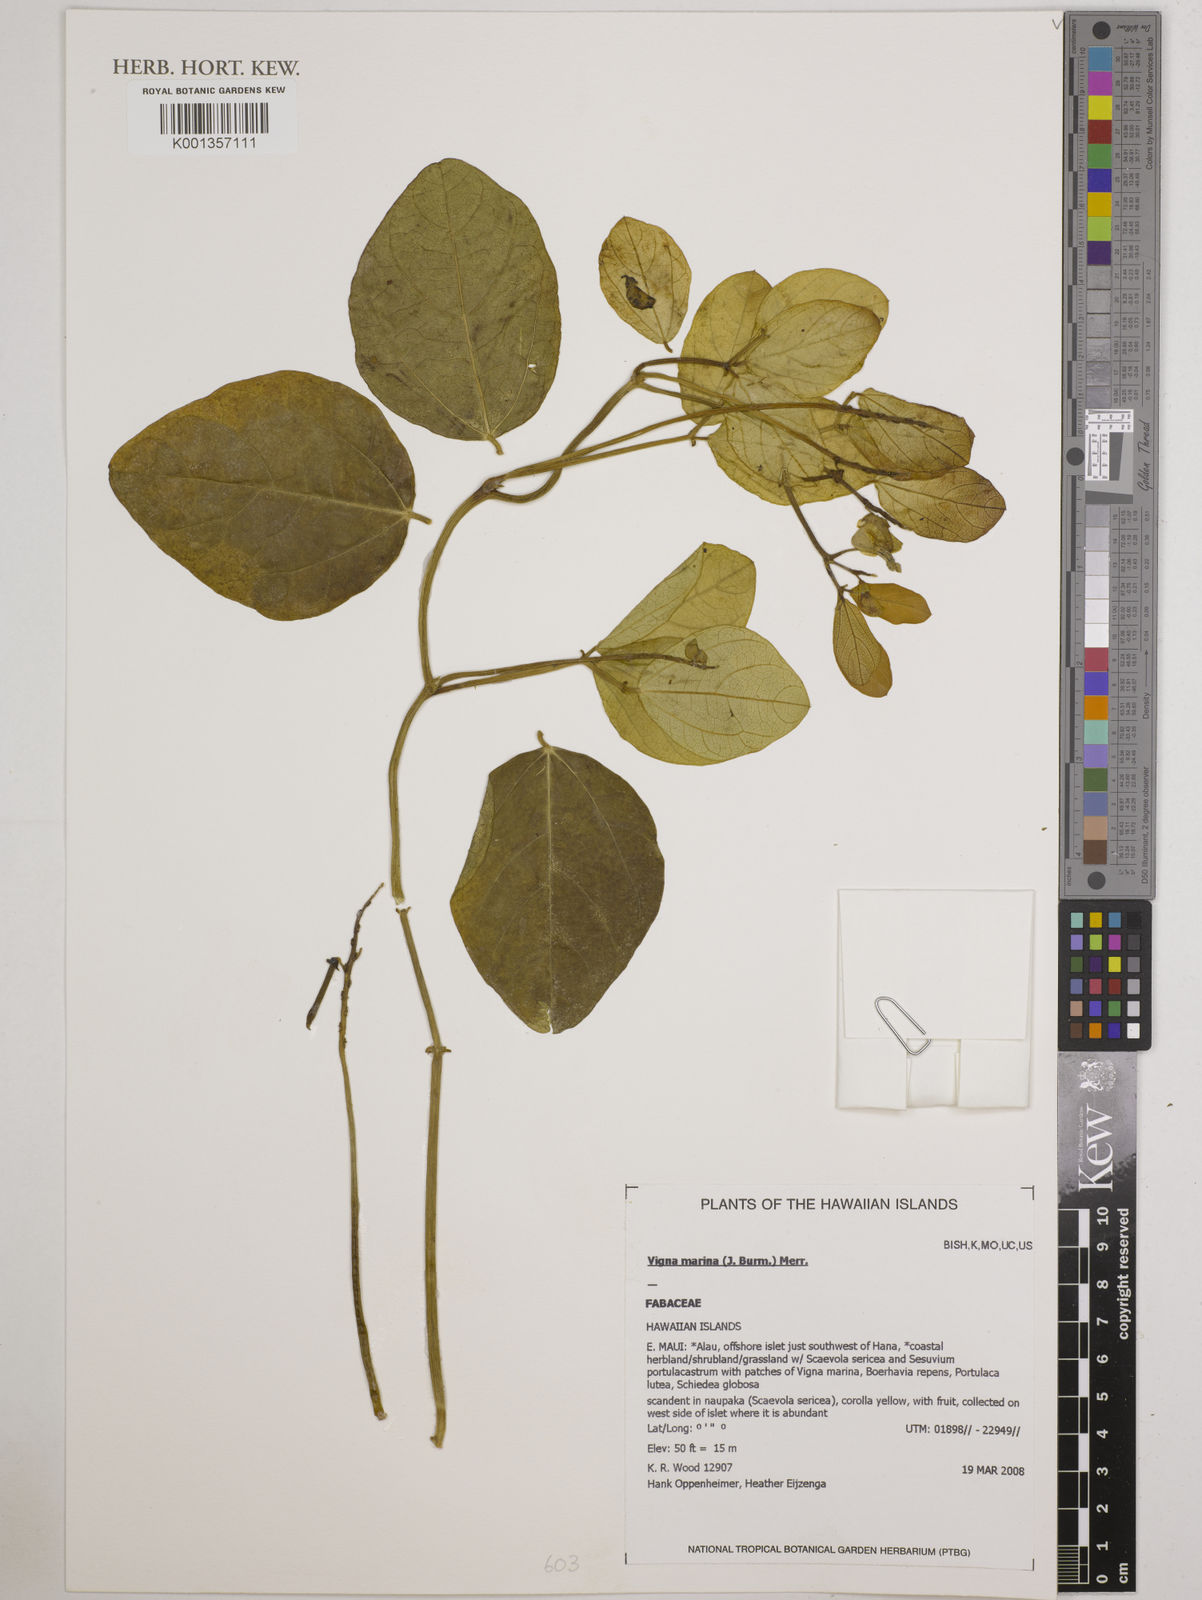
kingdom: Plantae
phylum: Tracheophyta
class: Magnoliopsida
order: Fabales
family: Fabaceae
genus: Vigna
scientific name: Vigna marina
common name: Dune-bean
